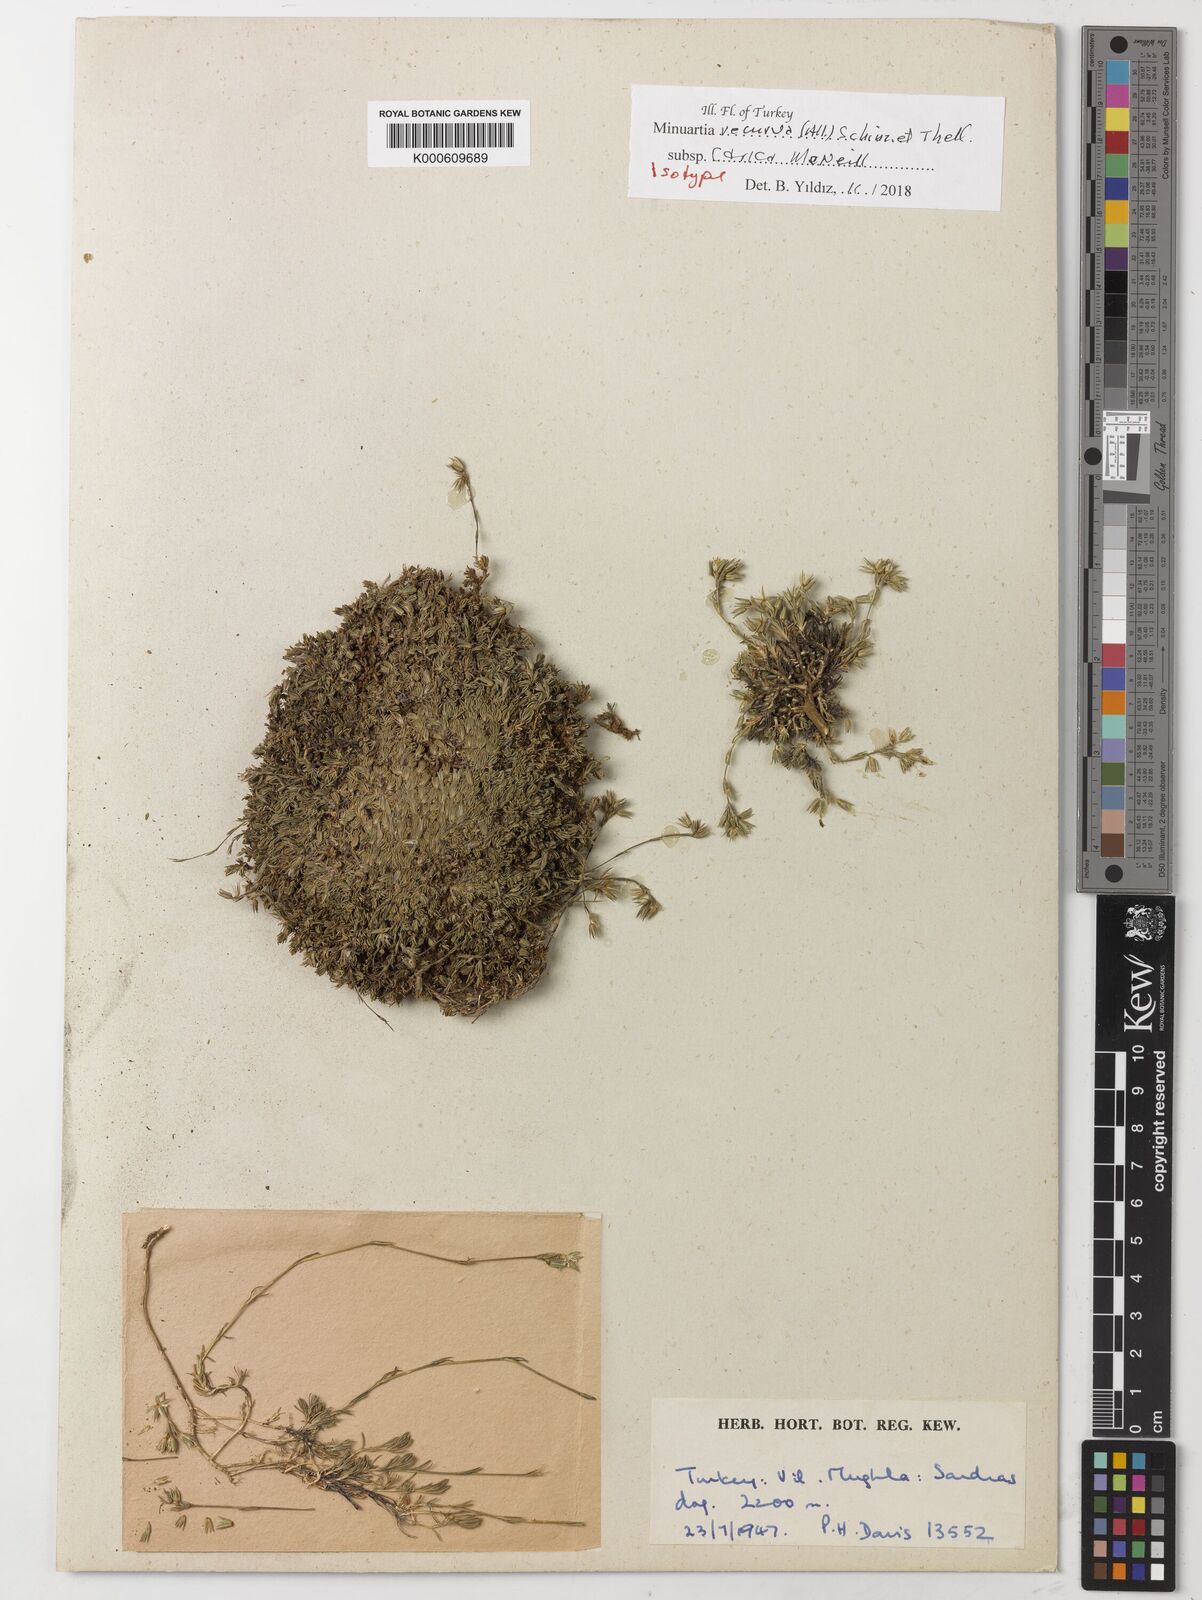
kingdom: Plantae
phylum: Tracheophyta
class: Magnoliopsida
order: Caryophyllales
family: Caryophyllaceae
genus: Minuartia
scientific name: Minuartia recurva
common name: Recurved sandwort
